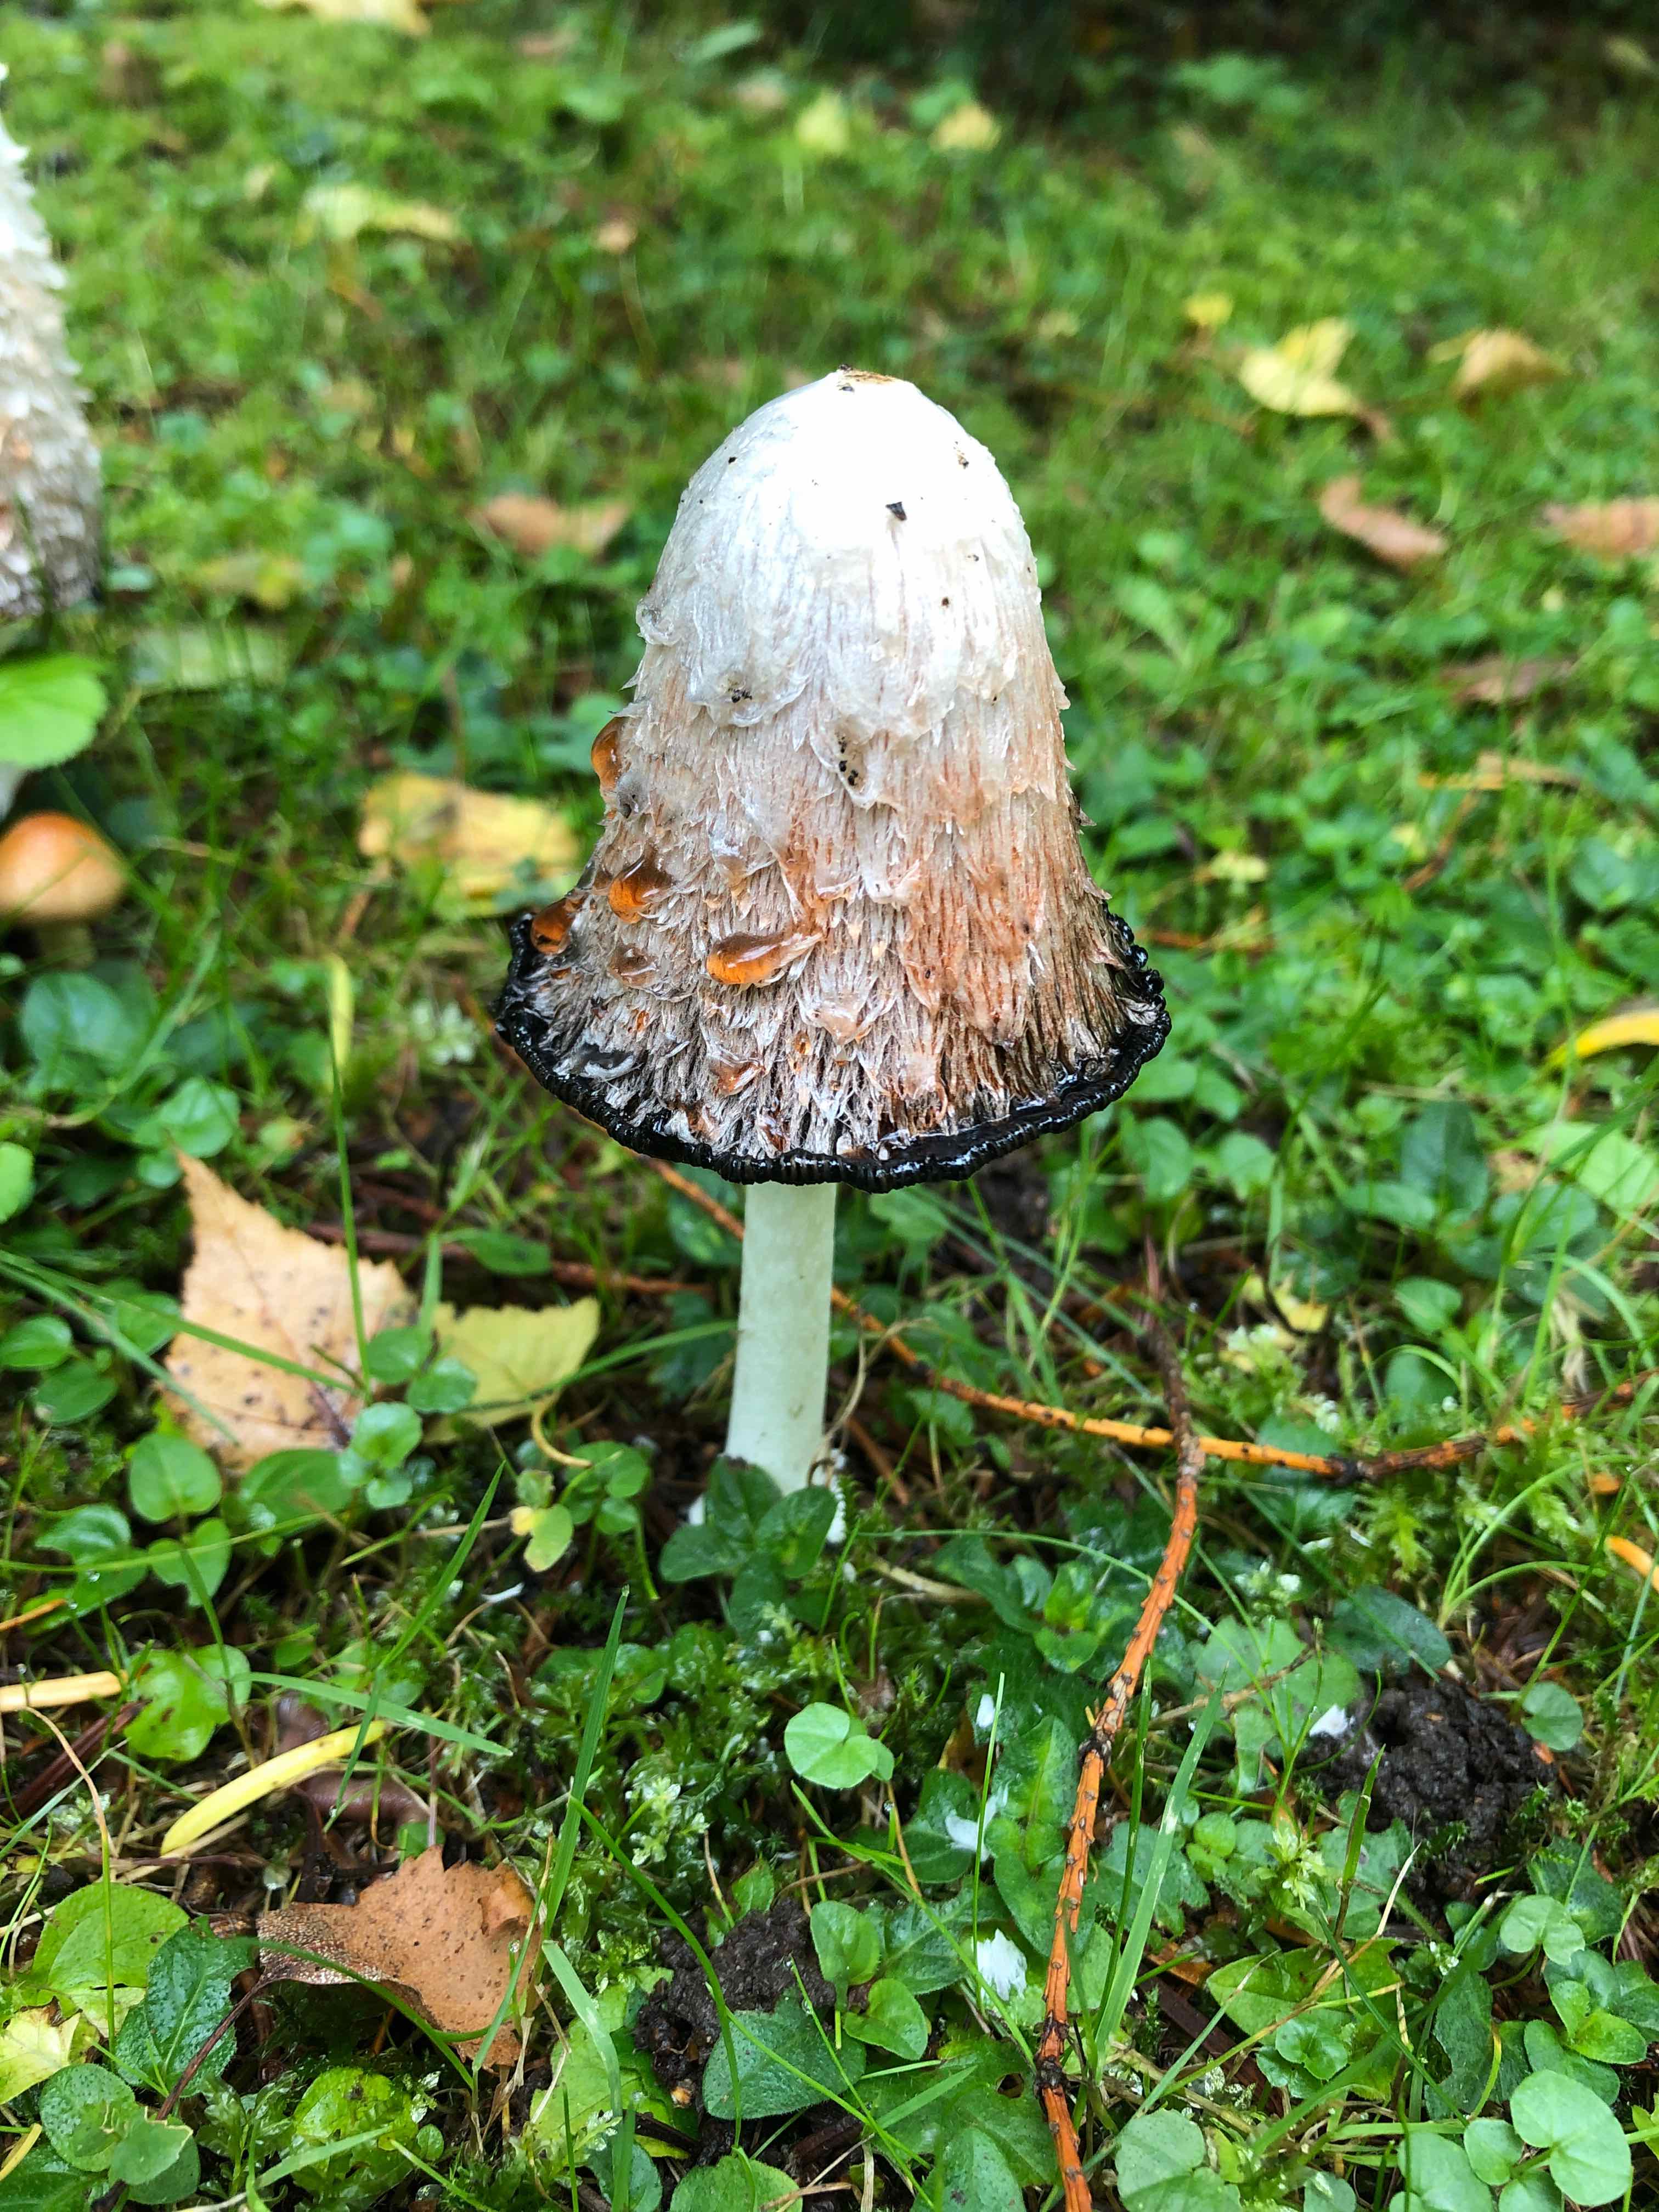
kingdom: Fungi
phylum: Basidiomycota
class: Agaricomycetes
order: Agaricales
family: Agaricaceae
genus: Coprinus
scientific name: Coprinus comatus
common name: stor parykhat
